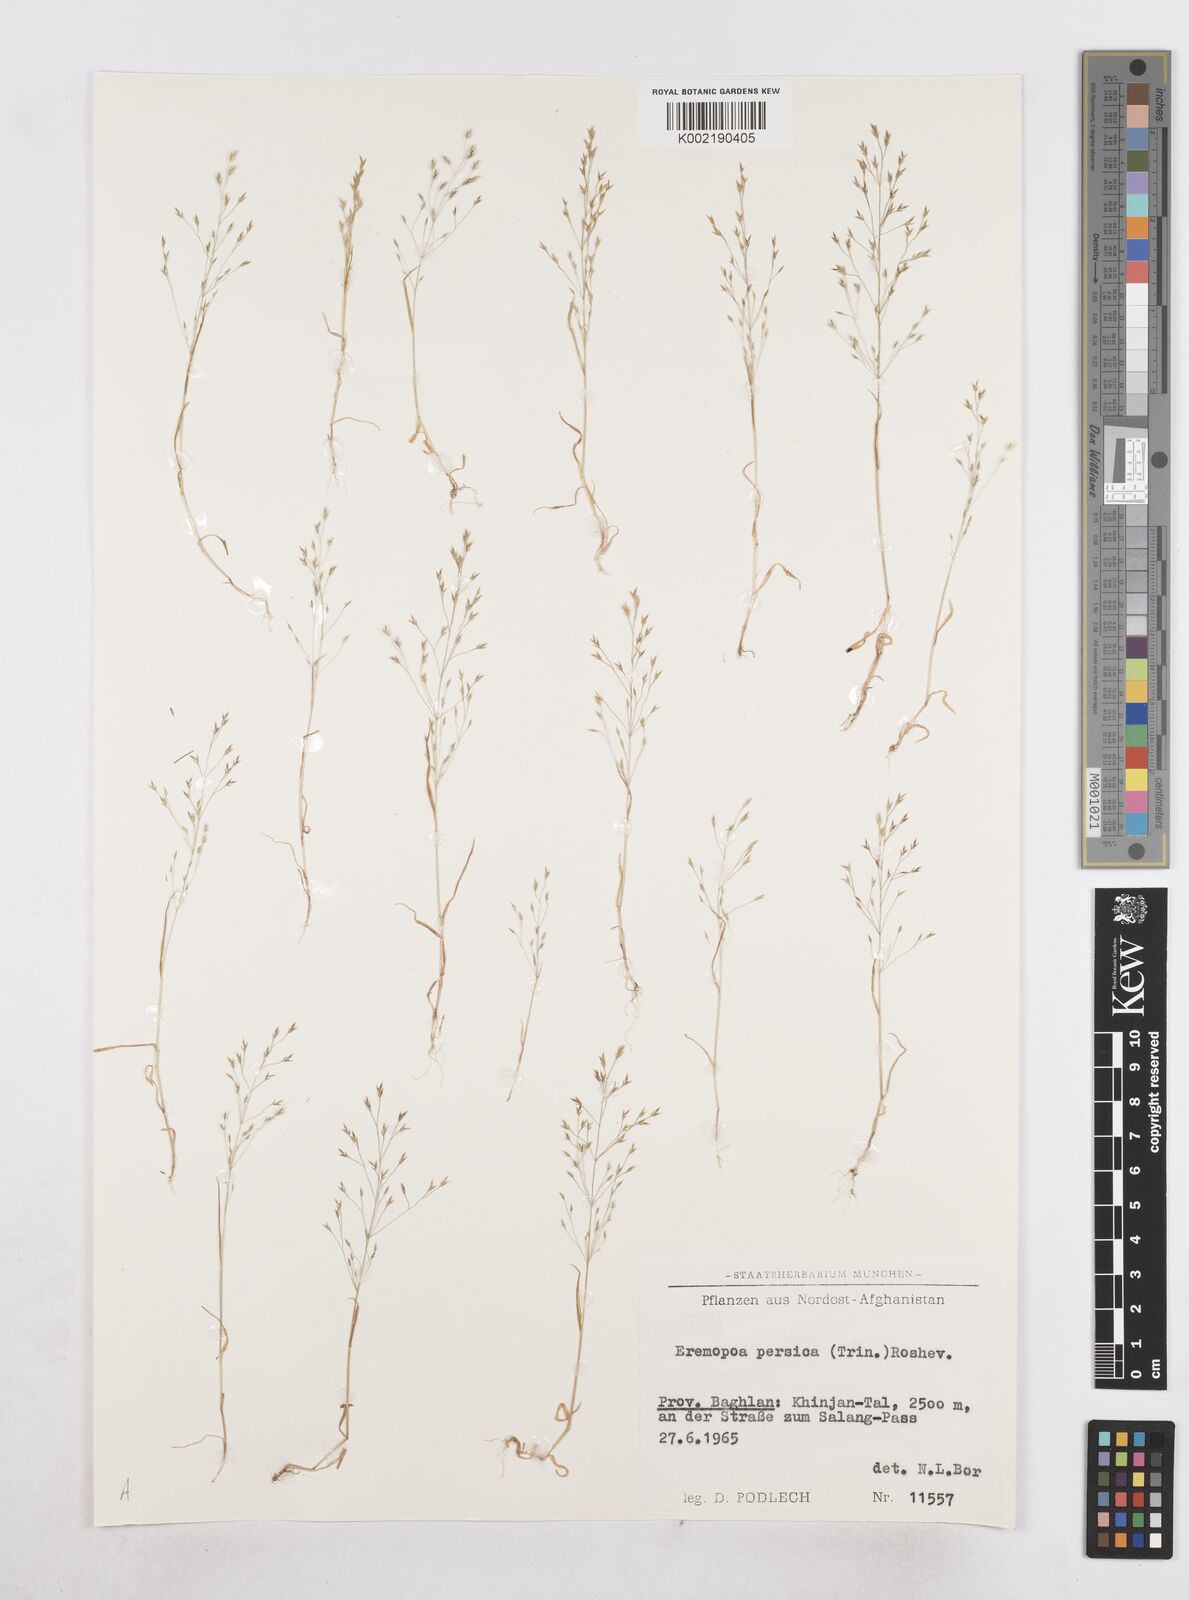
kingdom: Plantae
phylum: Tracheophyta
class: Liliopsida
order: Poales
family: Poaceae
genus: Poa
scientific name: Poa diaphora
